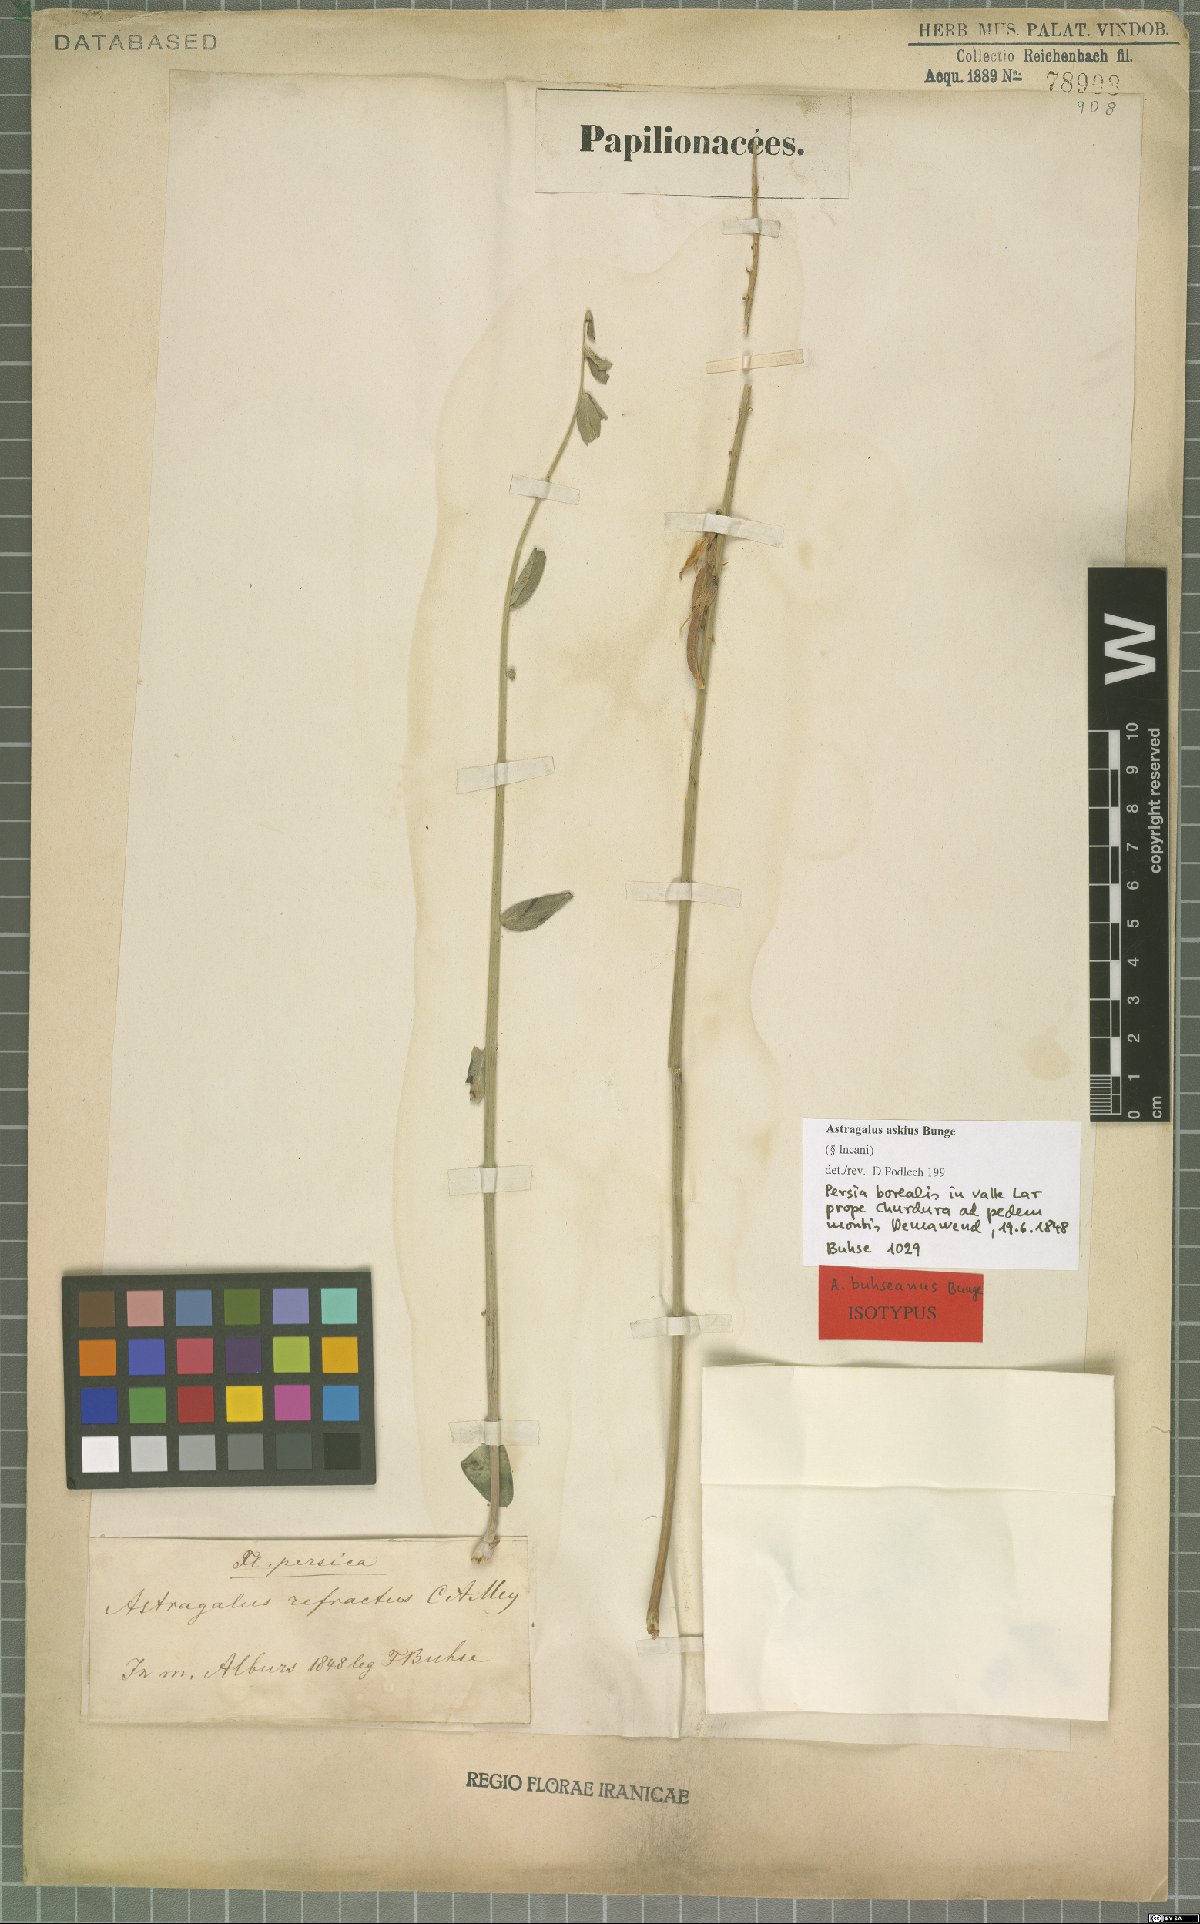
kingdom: Plantae
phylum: Tracheophyta
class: Magnoliopsida
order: Fabales
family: Fabaceae
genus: Astragalus
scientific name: Astragalus askius
